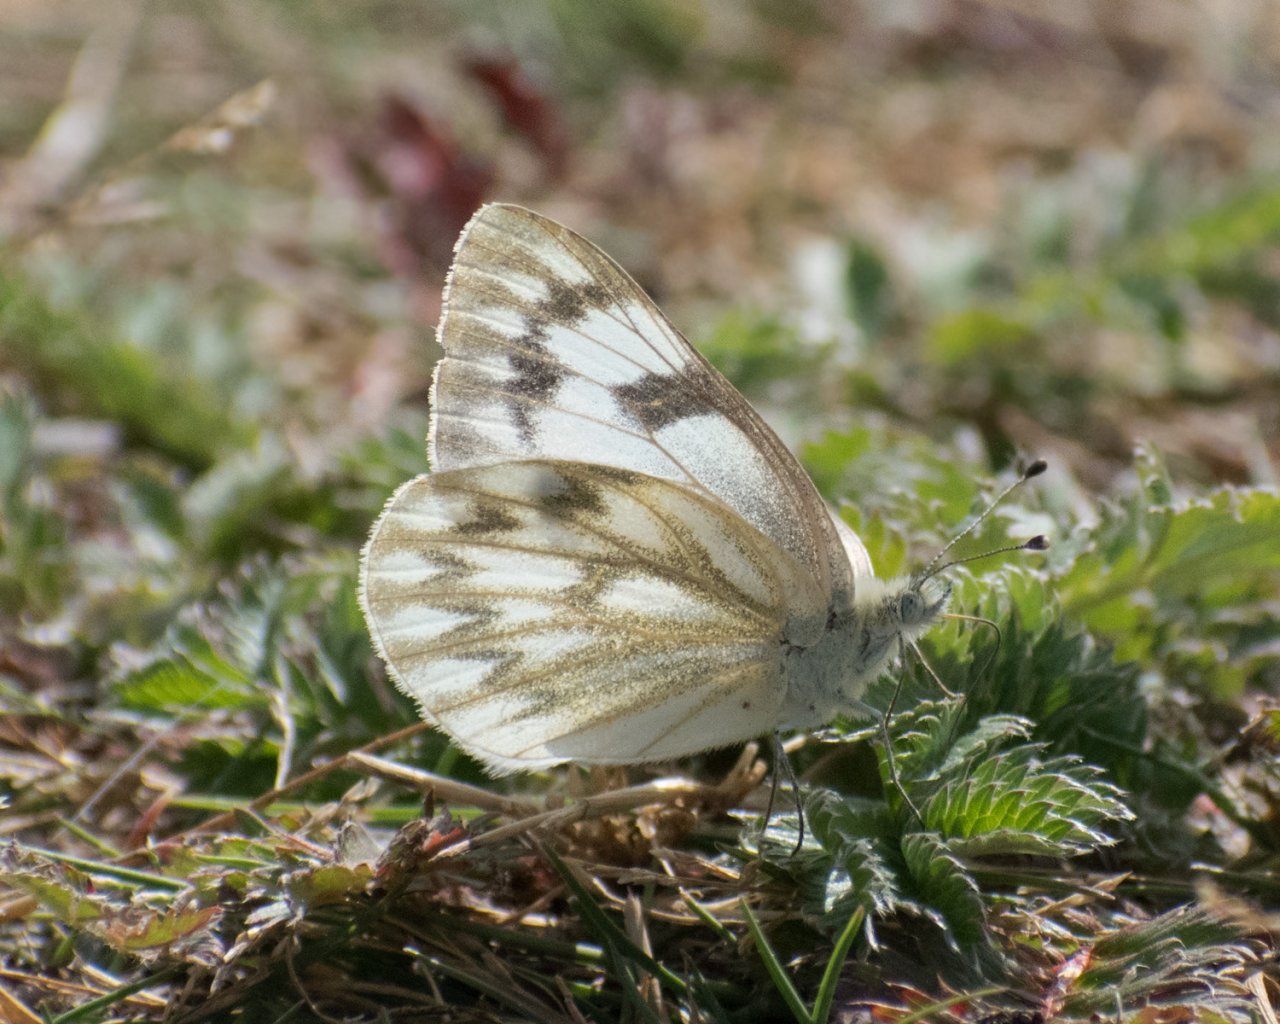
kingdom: Animalia
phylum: Arthropoda
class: Insecta
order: Lepidoptera
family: Pieridae
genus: Pontia
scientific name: Pontia occidentalis
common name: Western White
